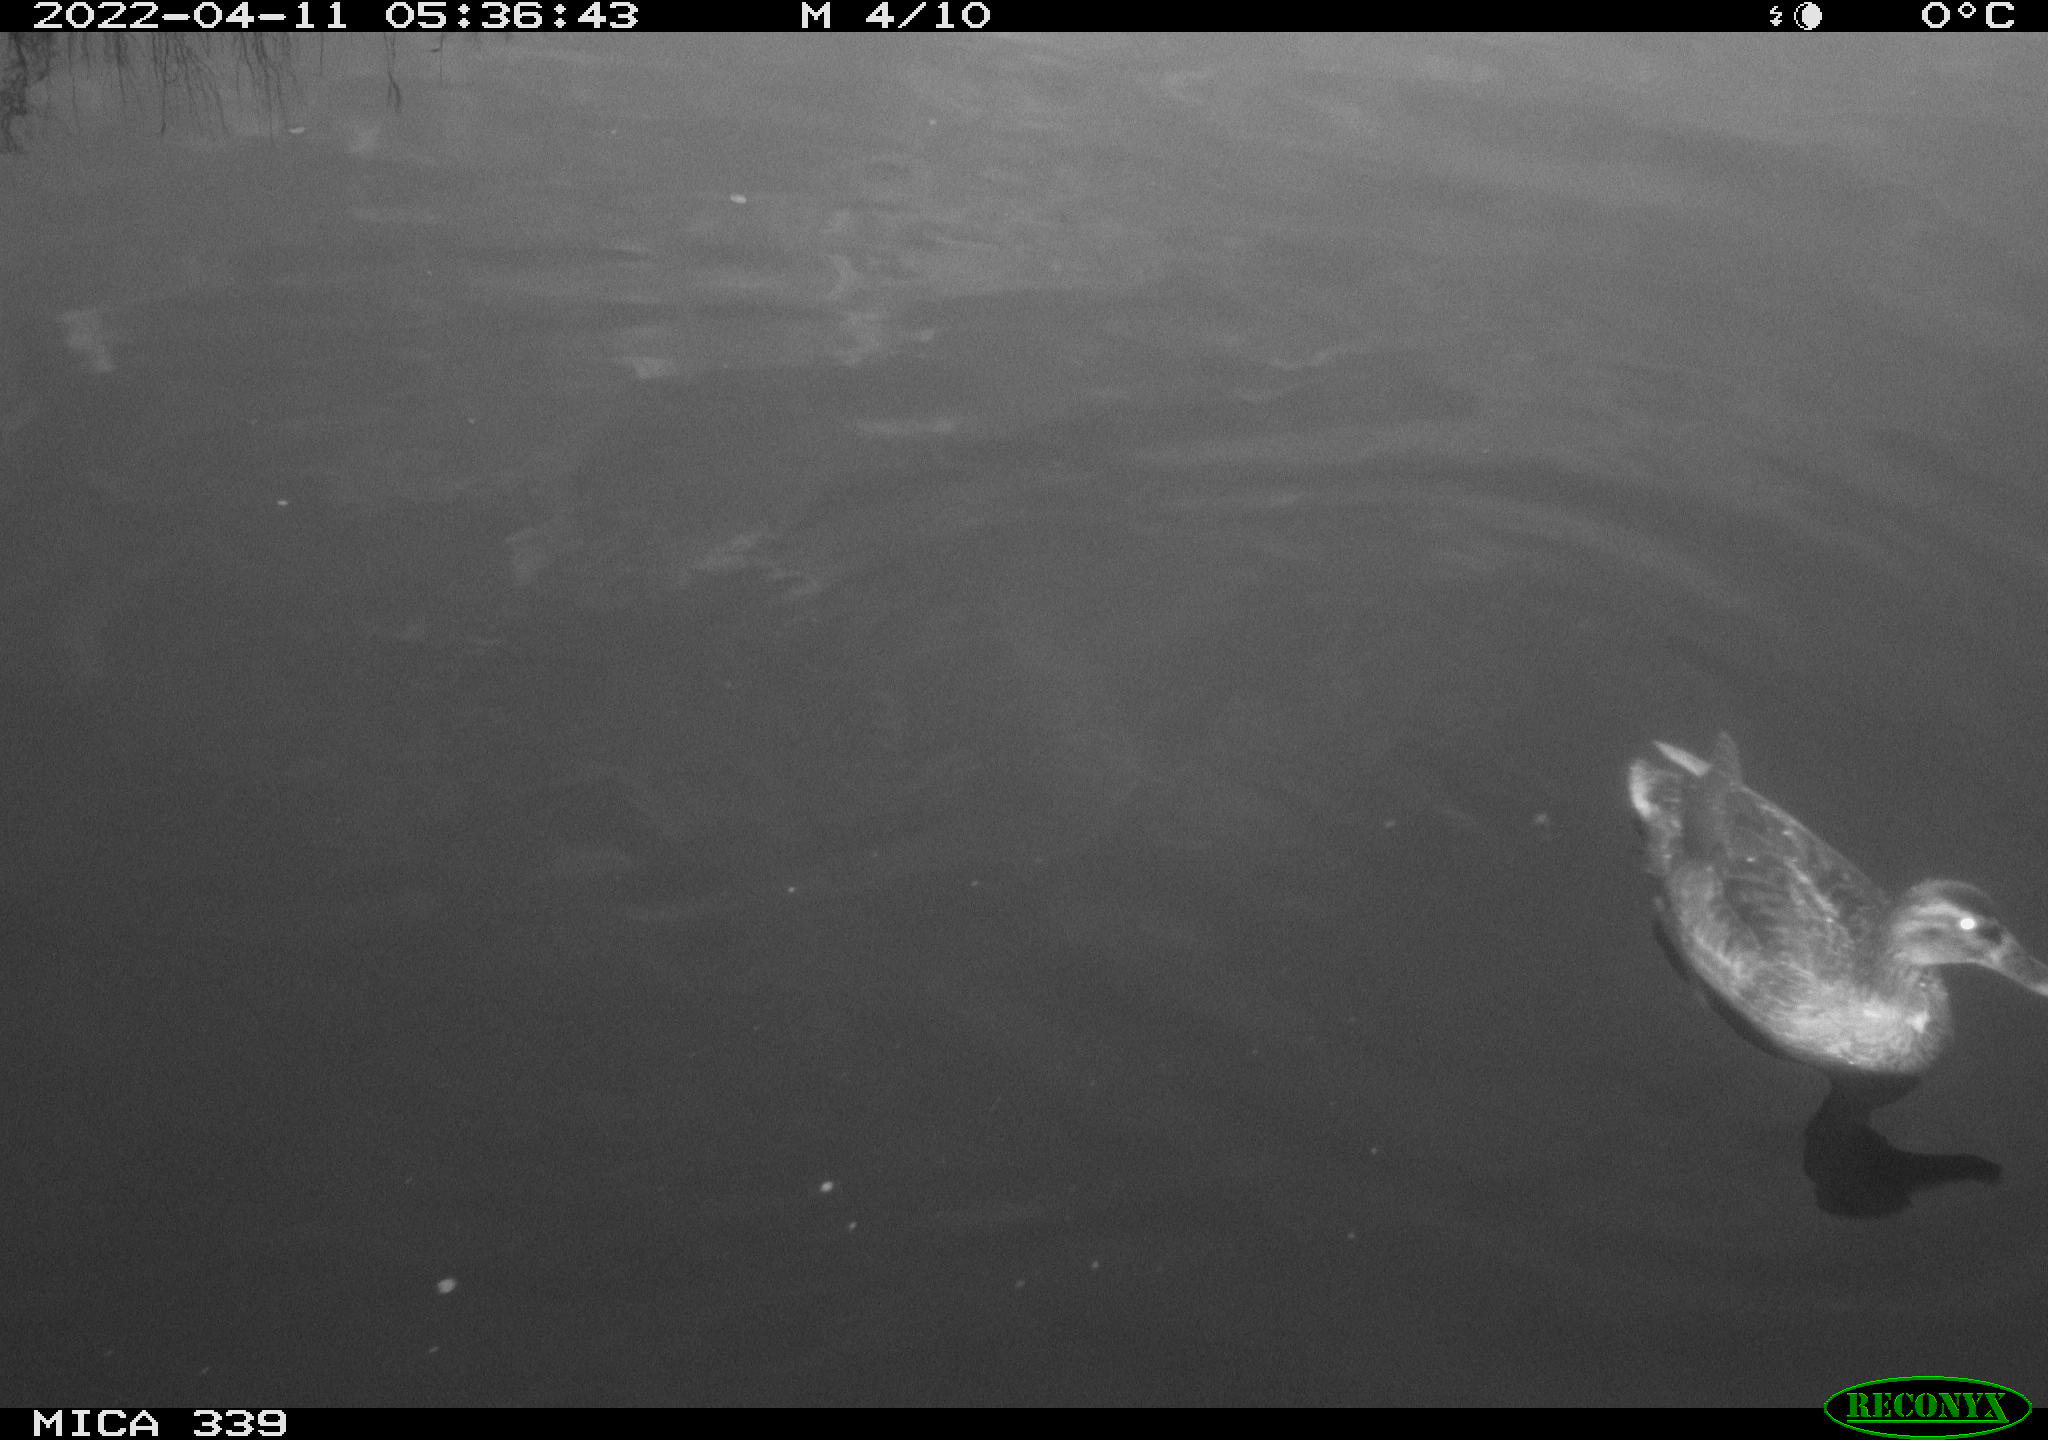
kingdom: Animalia
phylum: Chordata
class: Aves
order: Anseriformes
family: Anatidae
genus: Anas
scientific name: Anas platyrhynchos
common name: Mallard
